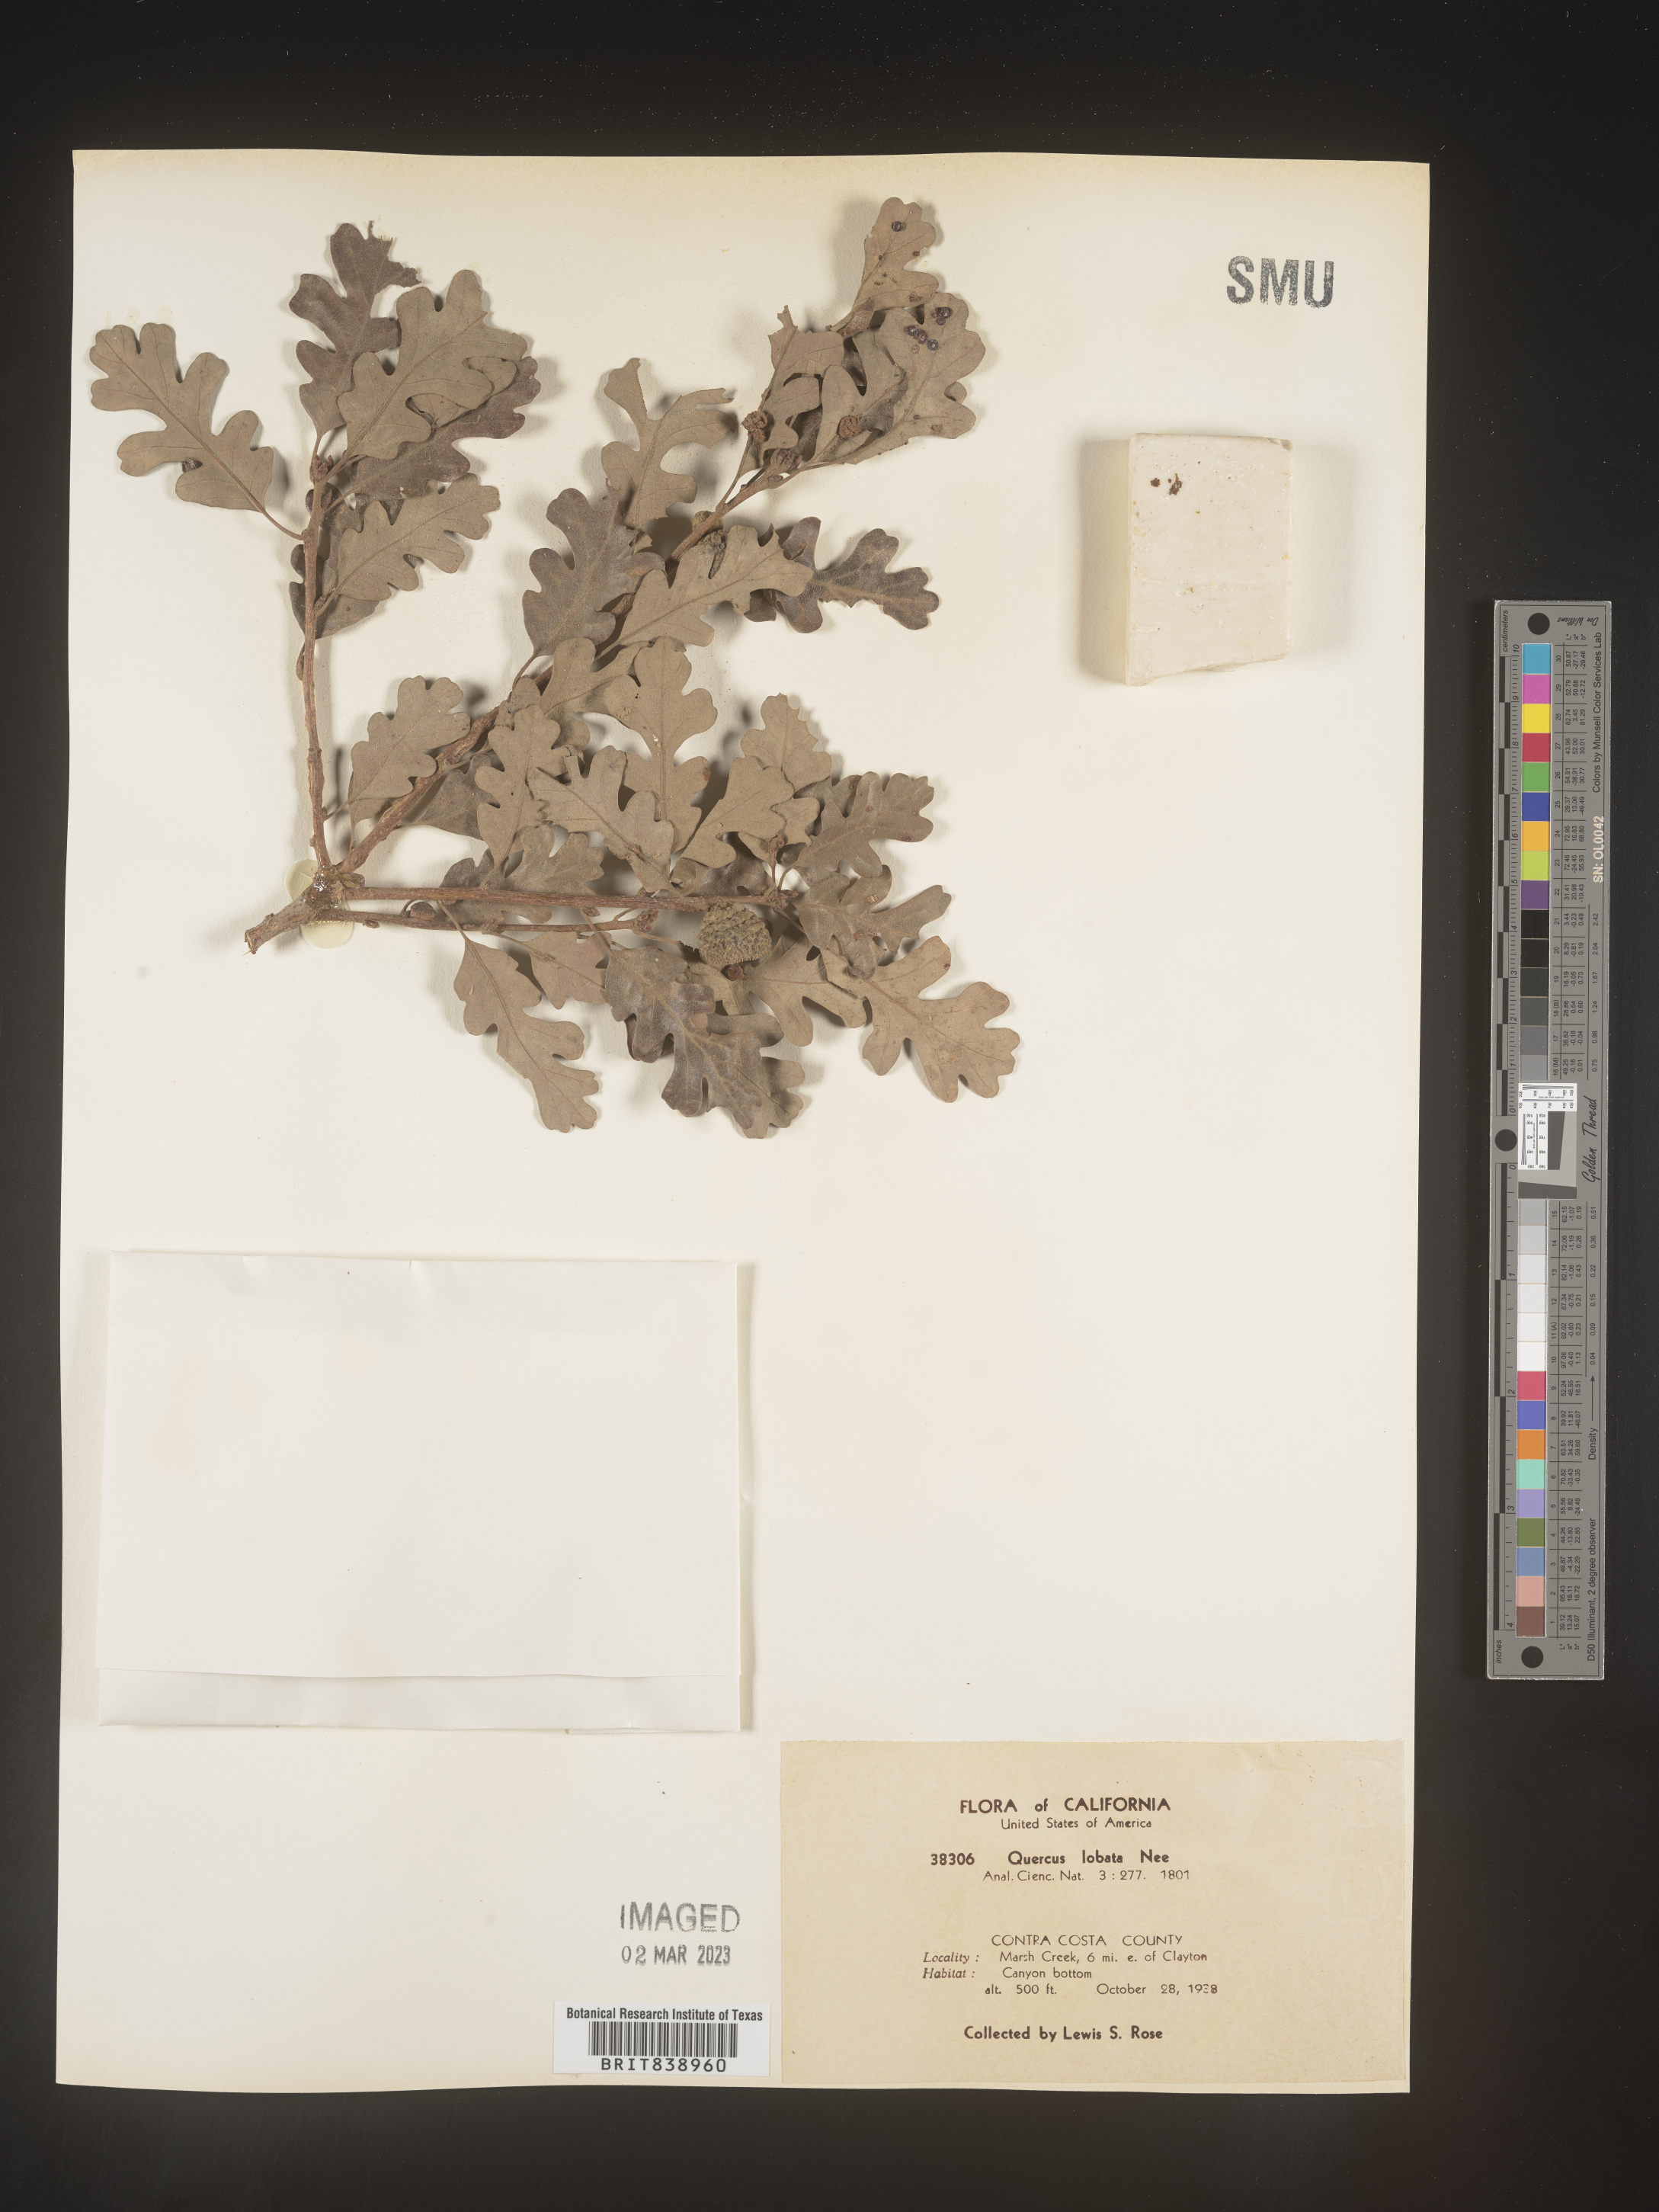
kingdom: Plantae
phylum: Tracheophyta
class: Magnoliopsida
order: Fagales
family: Fagaceae
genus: Quercus
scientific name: Quercus
